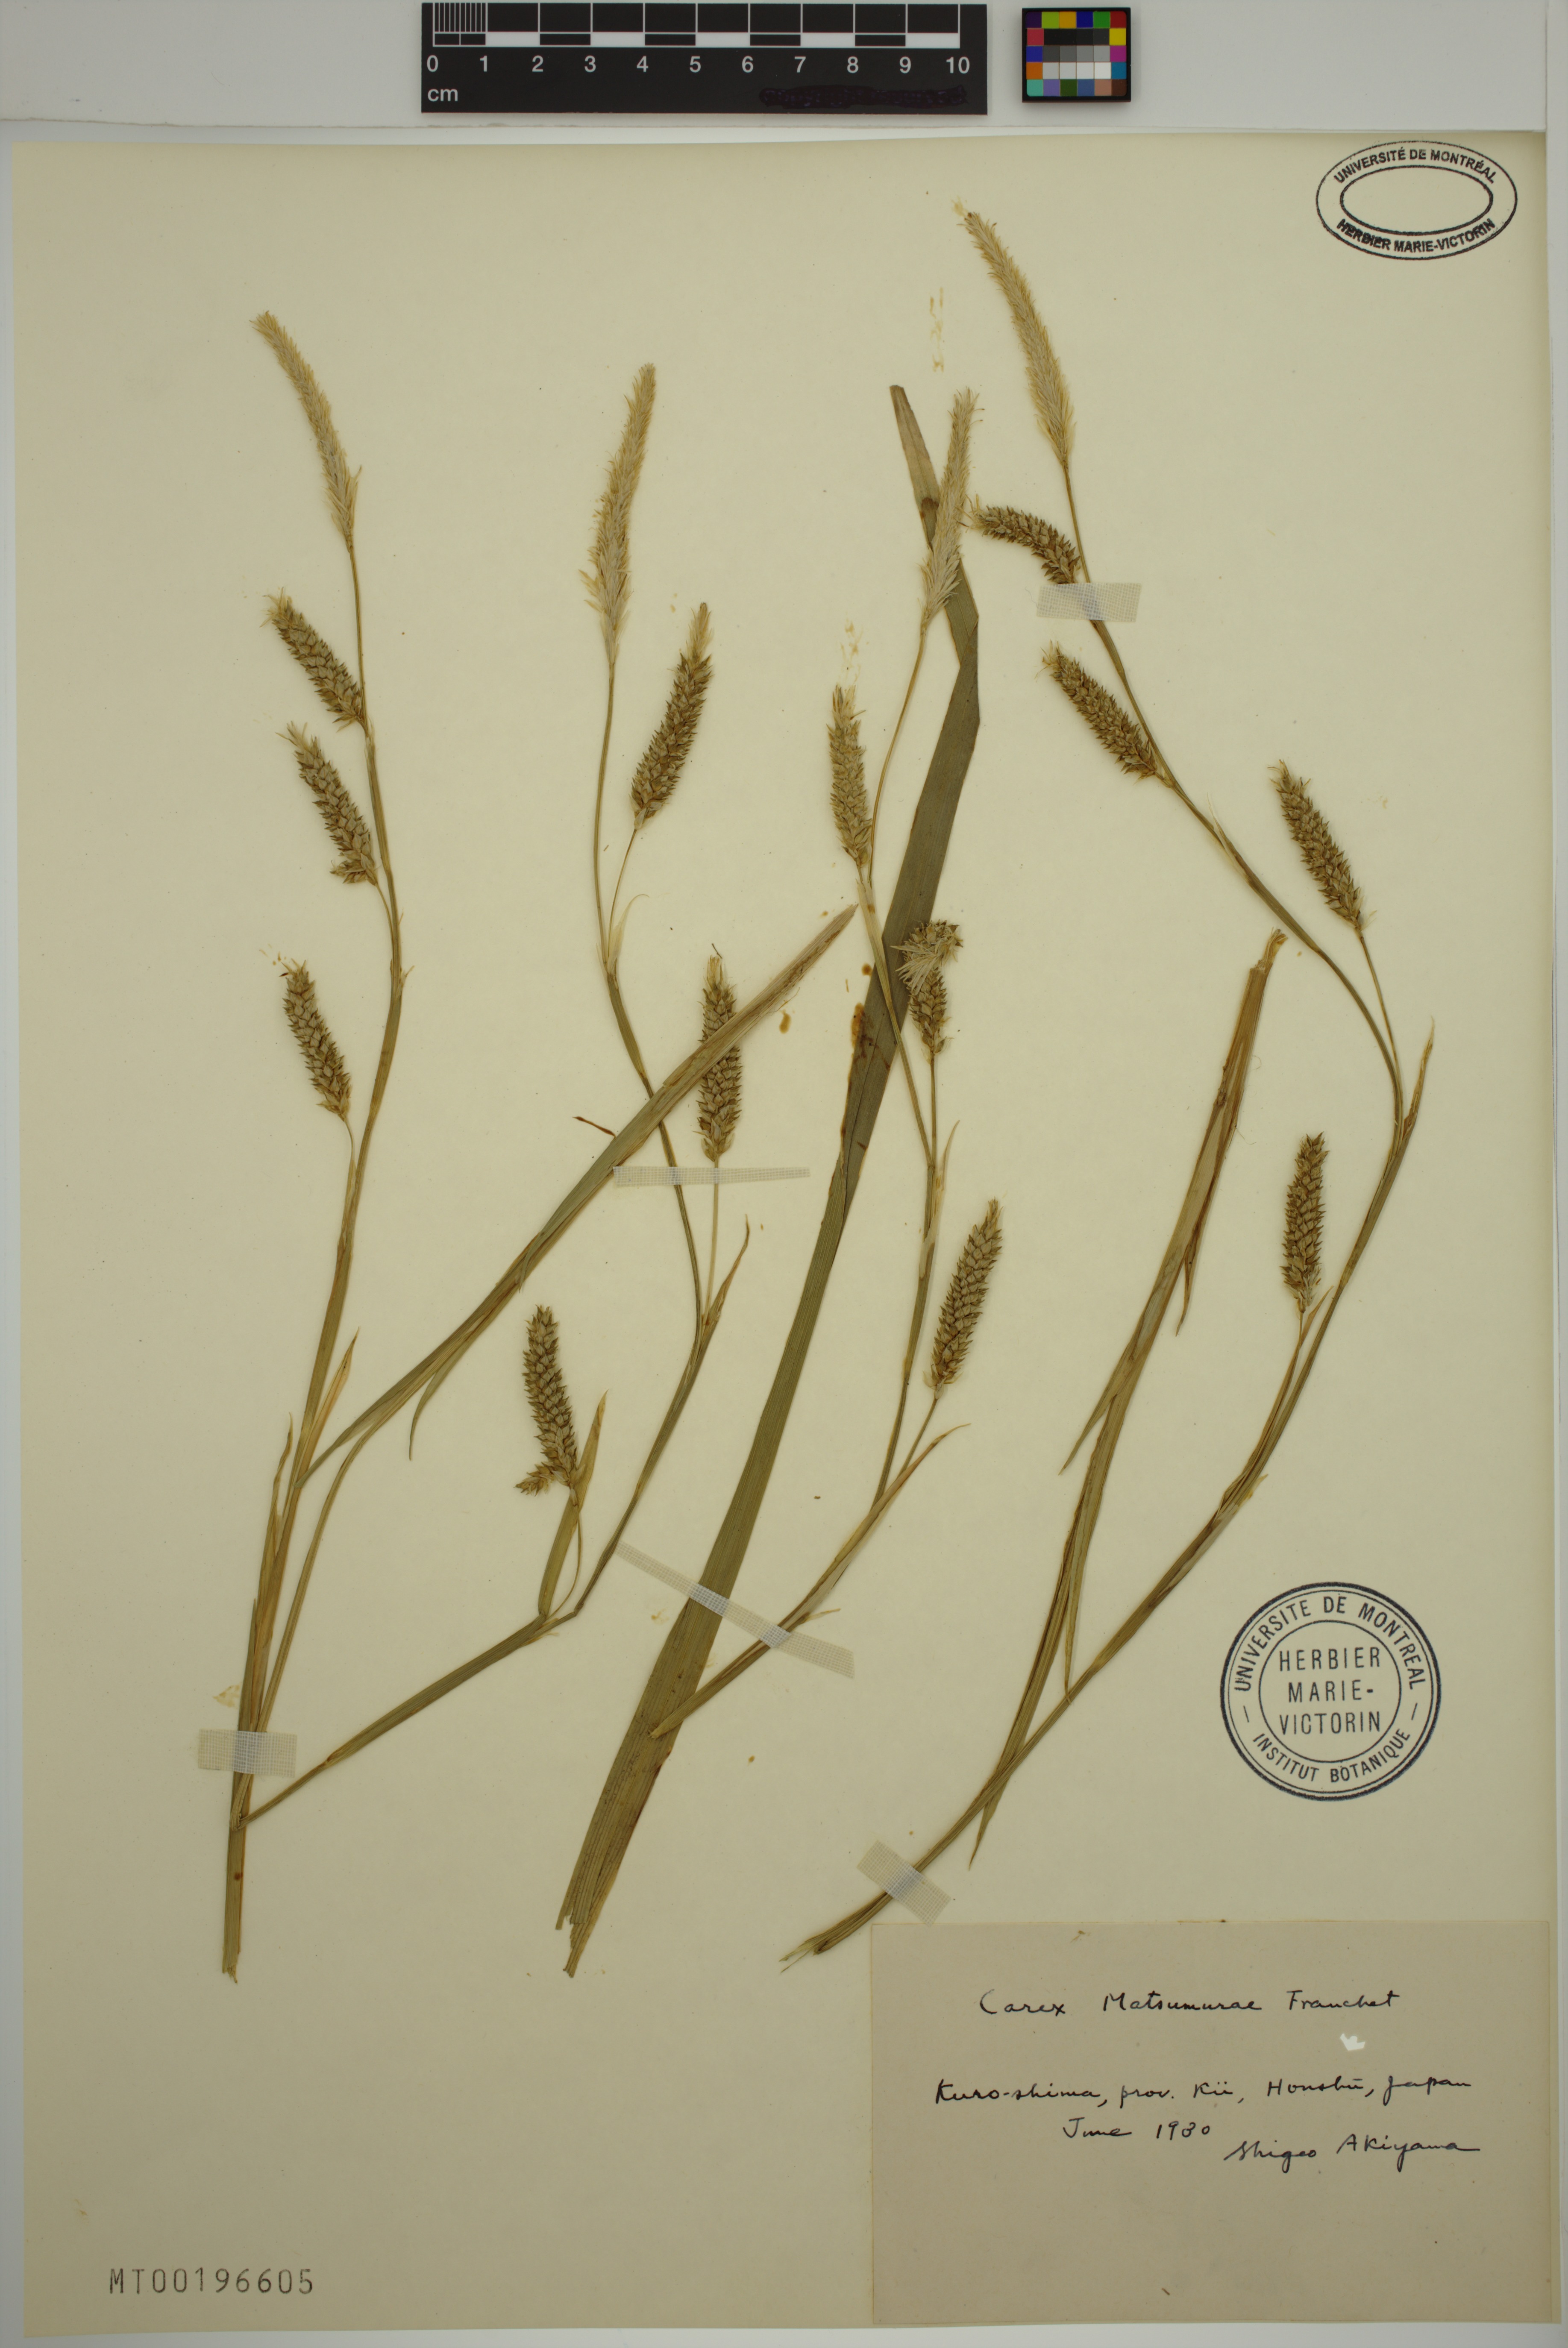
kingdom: Plantae
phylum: Tracheophyta
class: Liliopsida
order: Poales
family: Cyperaceae
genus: Carex
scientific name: Carex matsumurae
